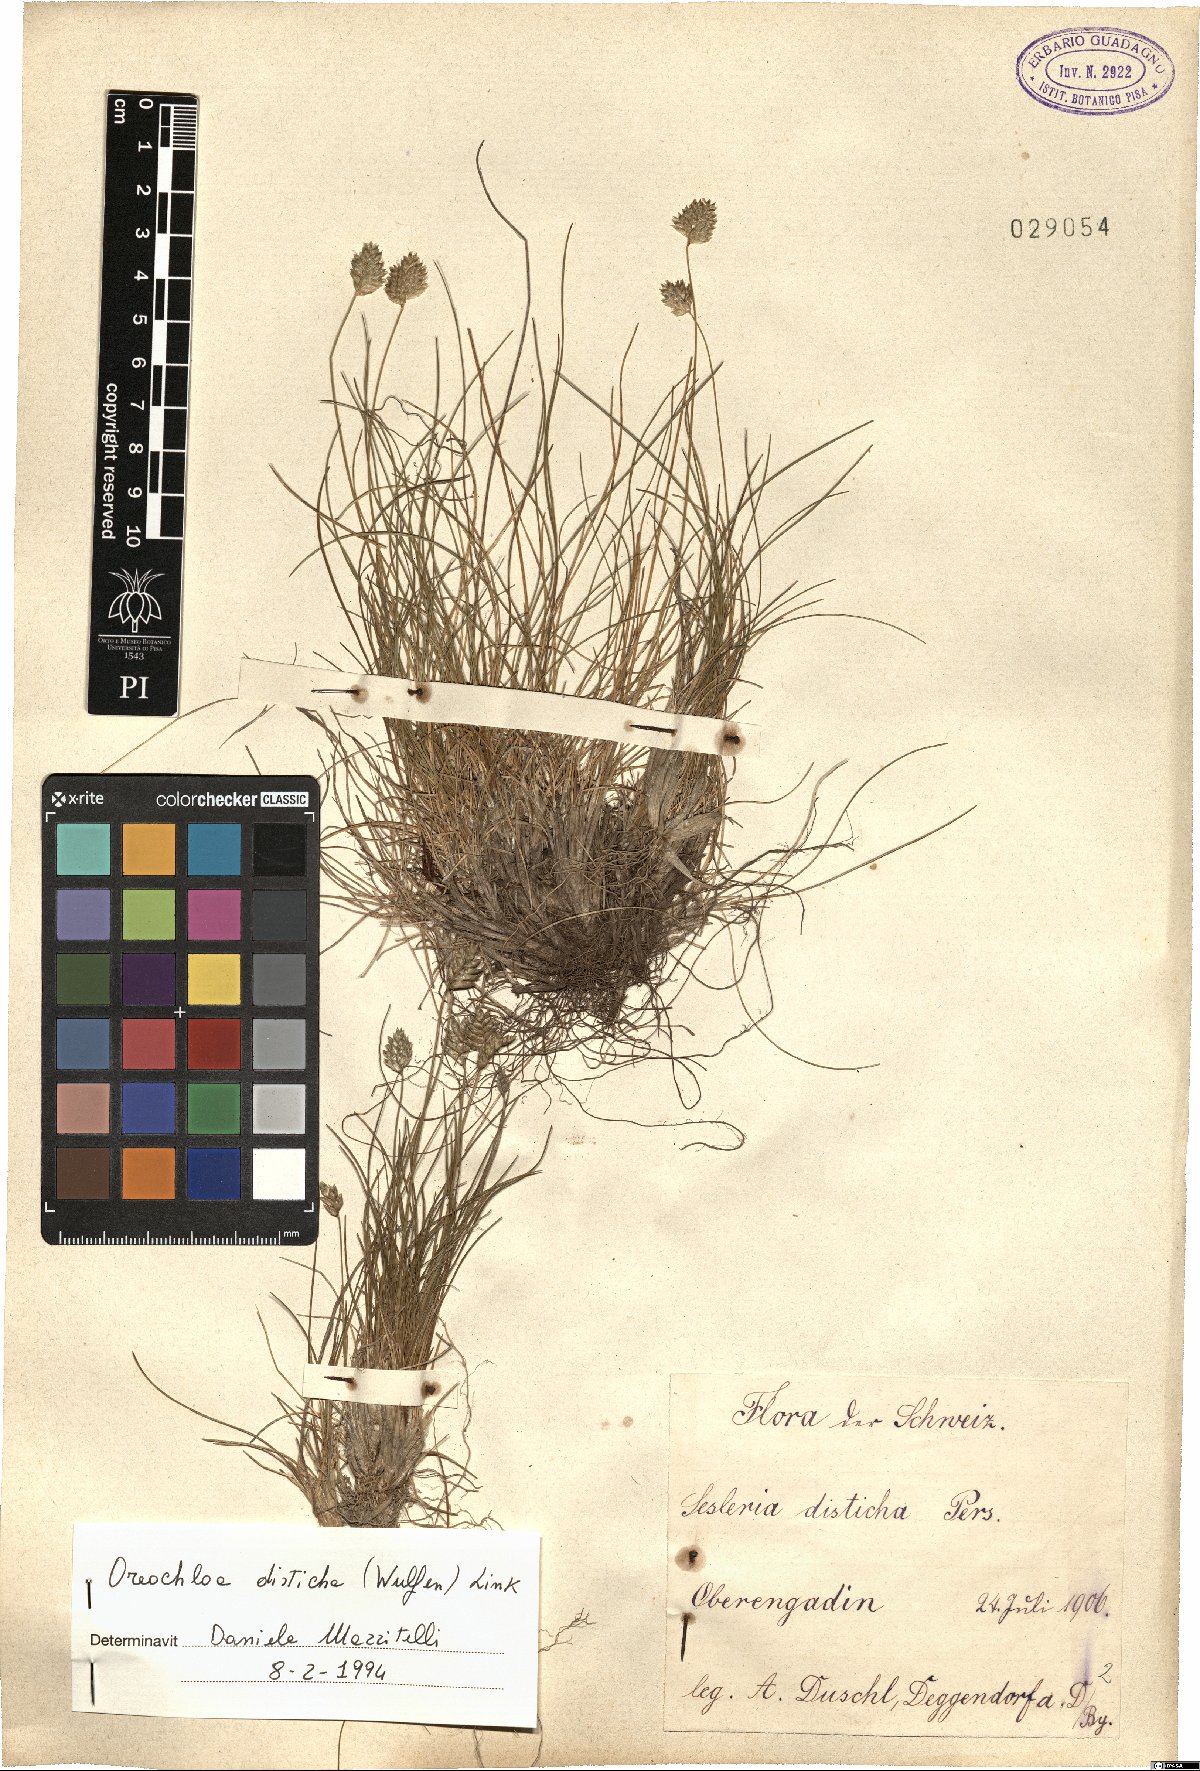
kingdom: Plantae
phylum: Tracheophyta
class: Liliopsida
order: Poales
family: Poaceae
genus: Oreochloa
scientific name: Oreochloa disticha
